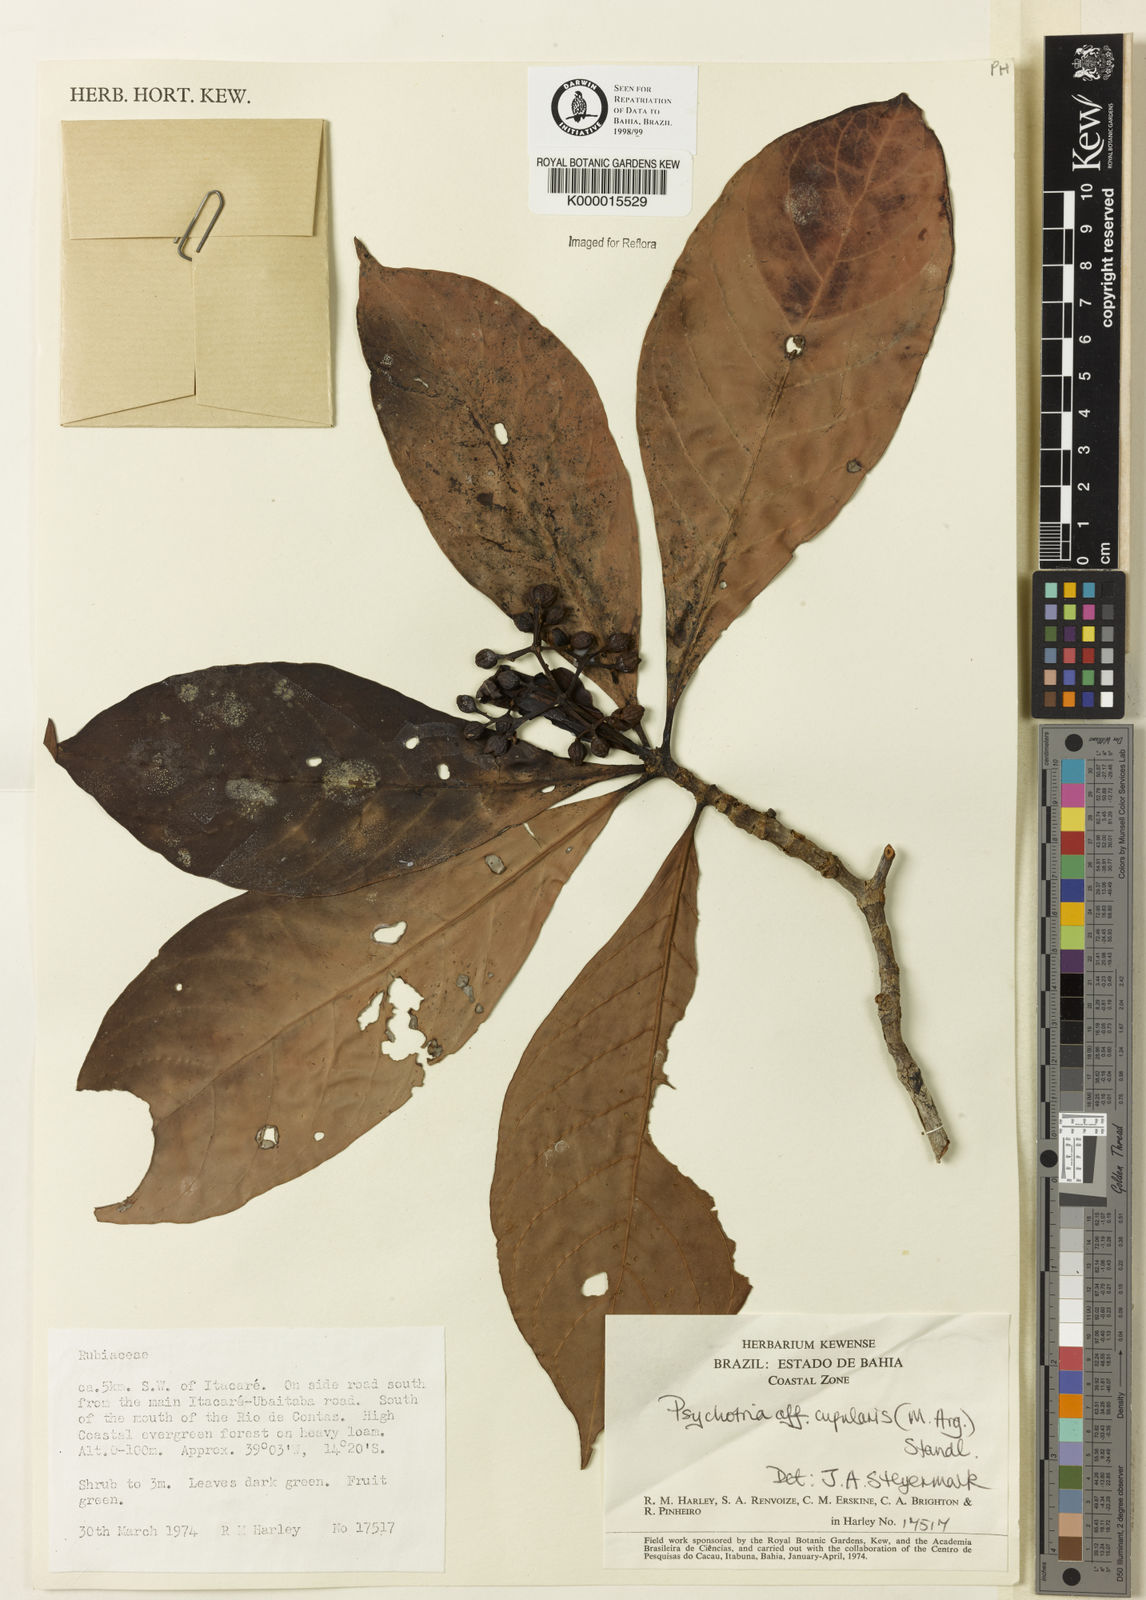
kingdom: Plantae
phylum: Tracheophyta
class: Magnoliopsida
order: Gentianales
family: Rubiaceae
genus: Psychotria
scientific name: Psychotria carthagenensis
